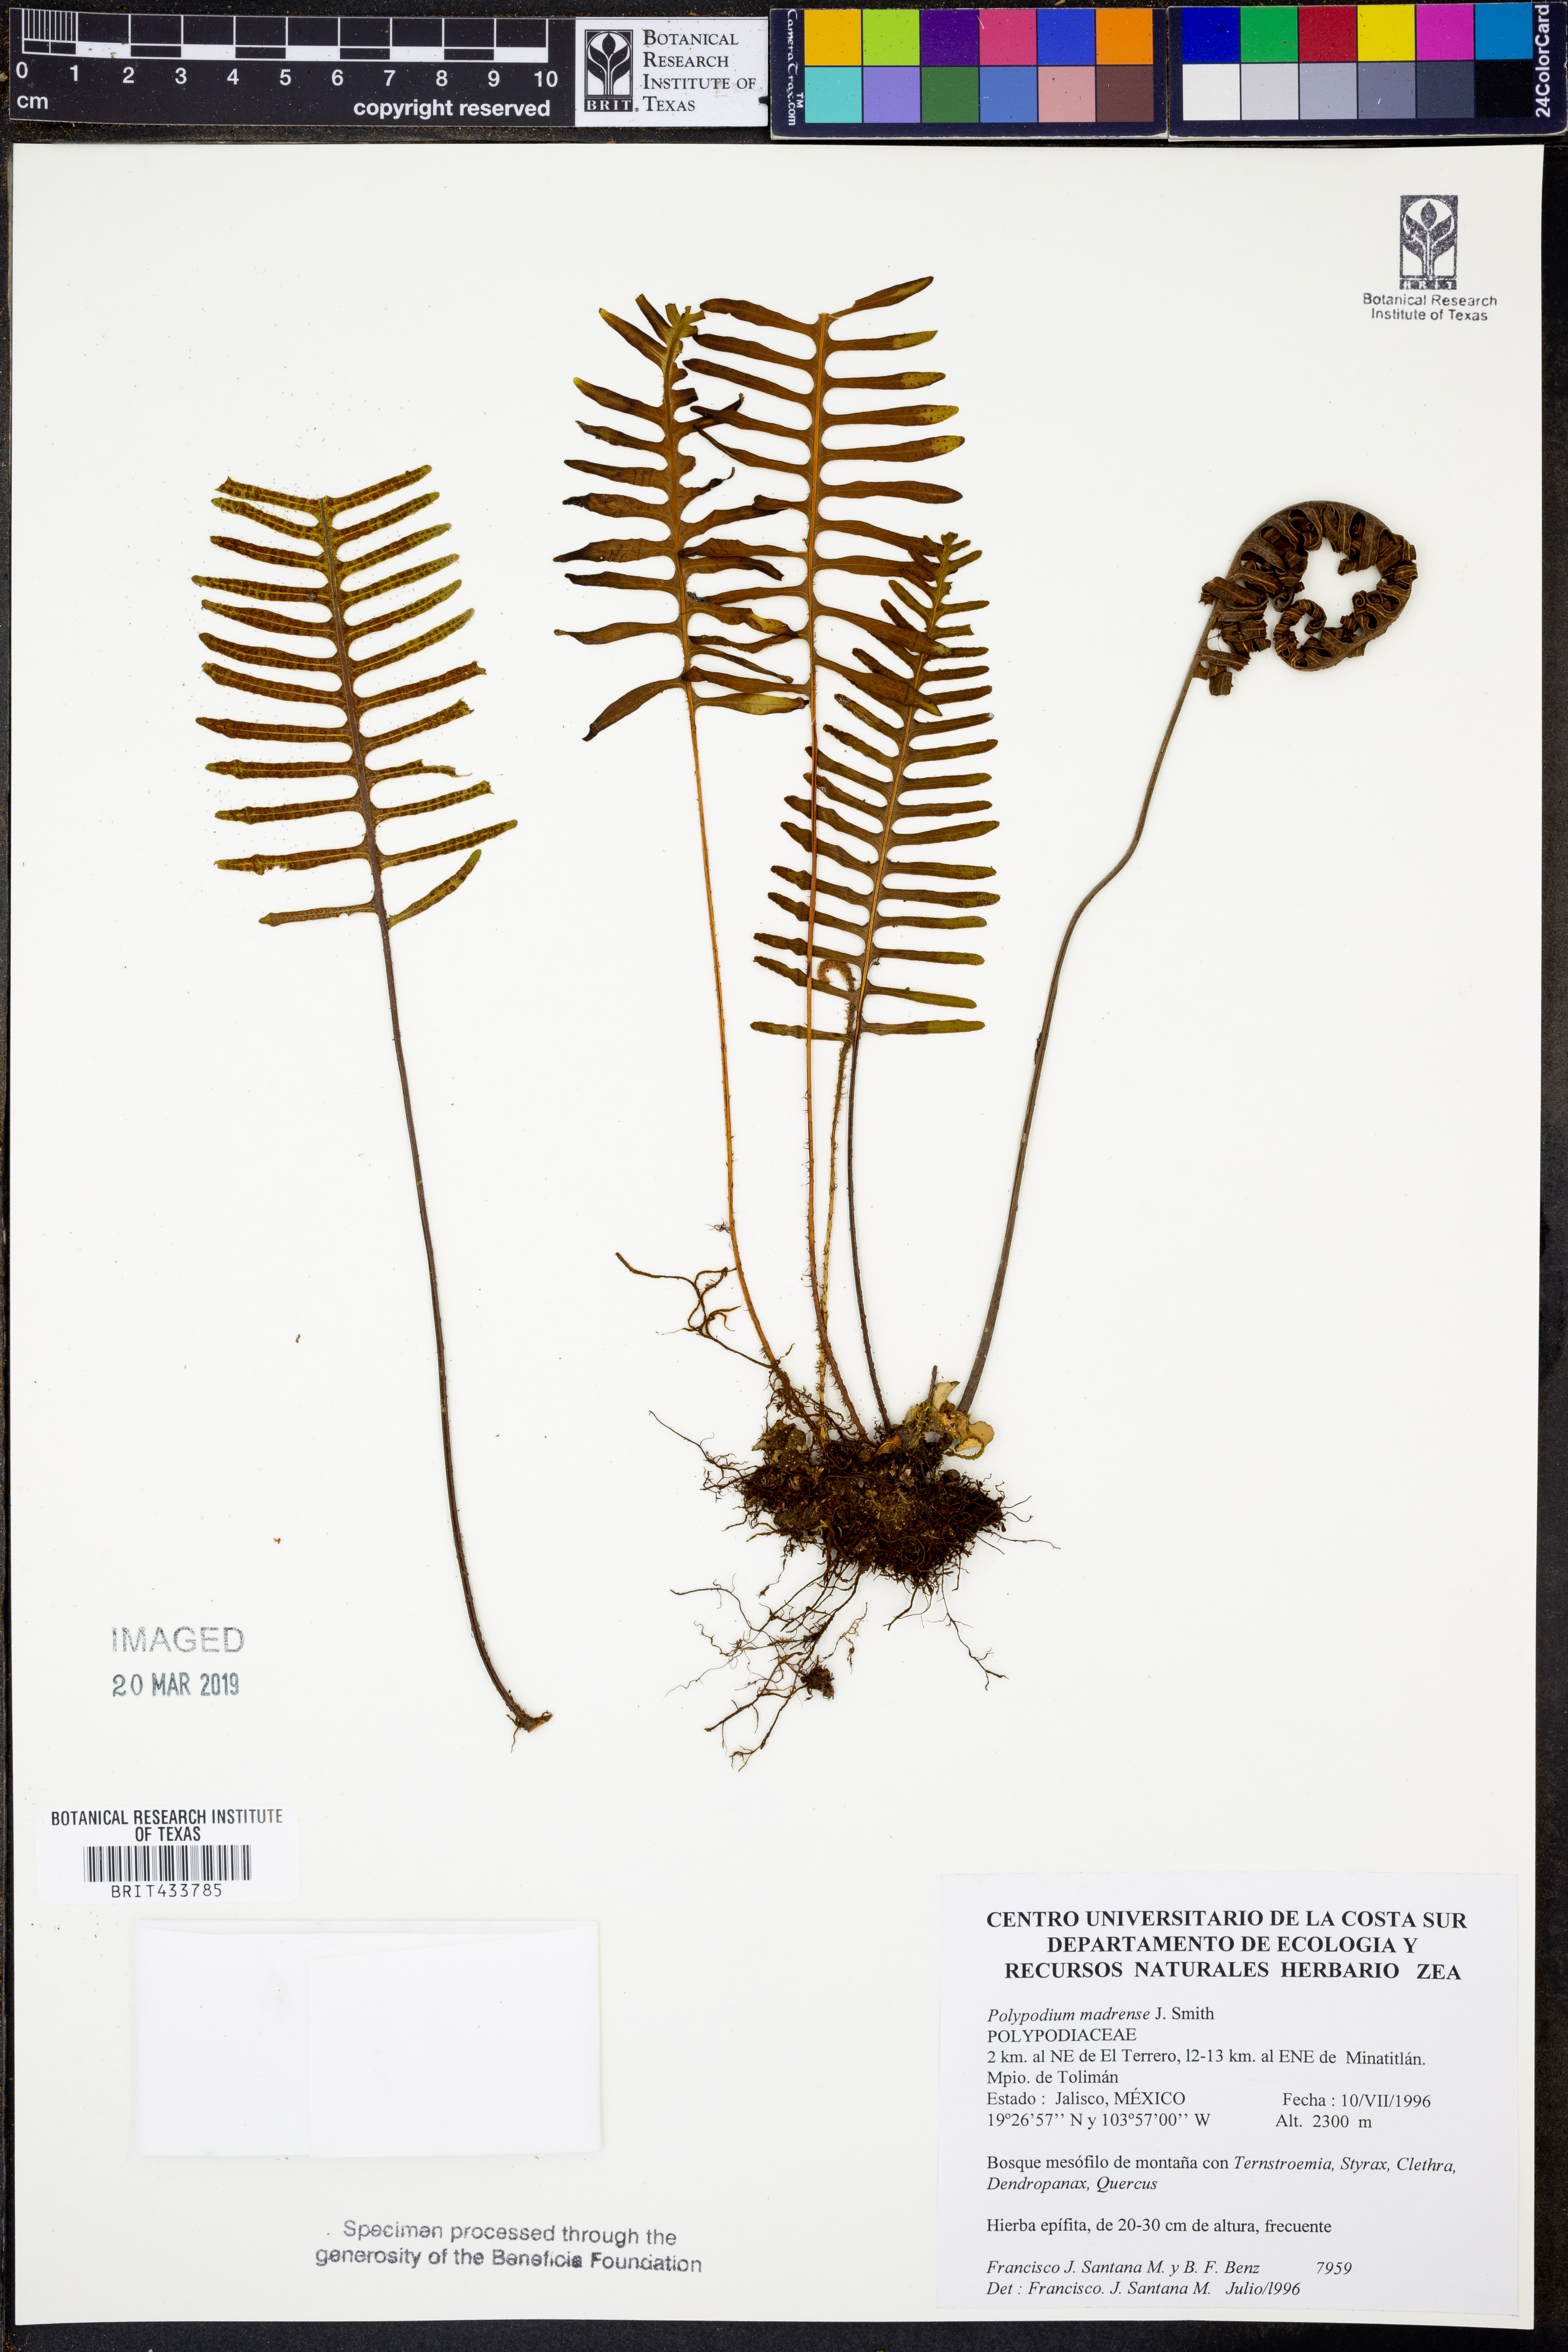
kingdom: Plantae
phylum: Tracheophyta
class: Polypodiopsida
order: Polypodiales
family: Polypodiaceae
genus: Pleopeltis
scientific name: Pleopeltis madrensis
